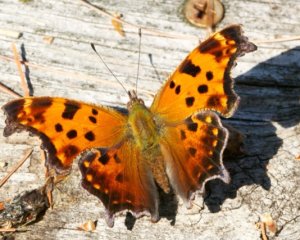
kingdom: Animalia
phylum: Arthropoda
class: Insecta
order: Lepidoptera
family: Nymphalidae
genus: Polygonia
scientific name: Polygonia comma
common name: Eastern Comma
